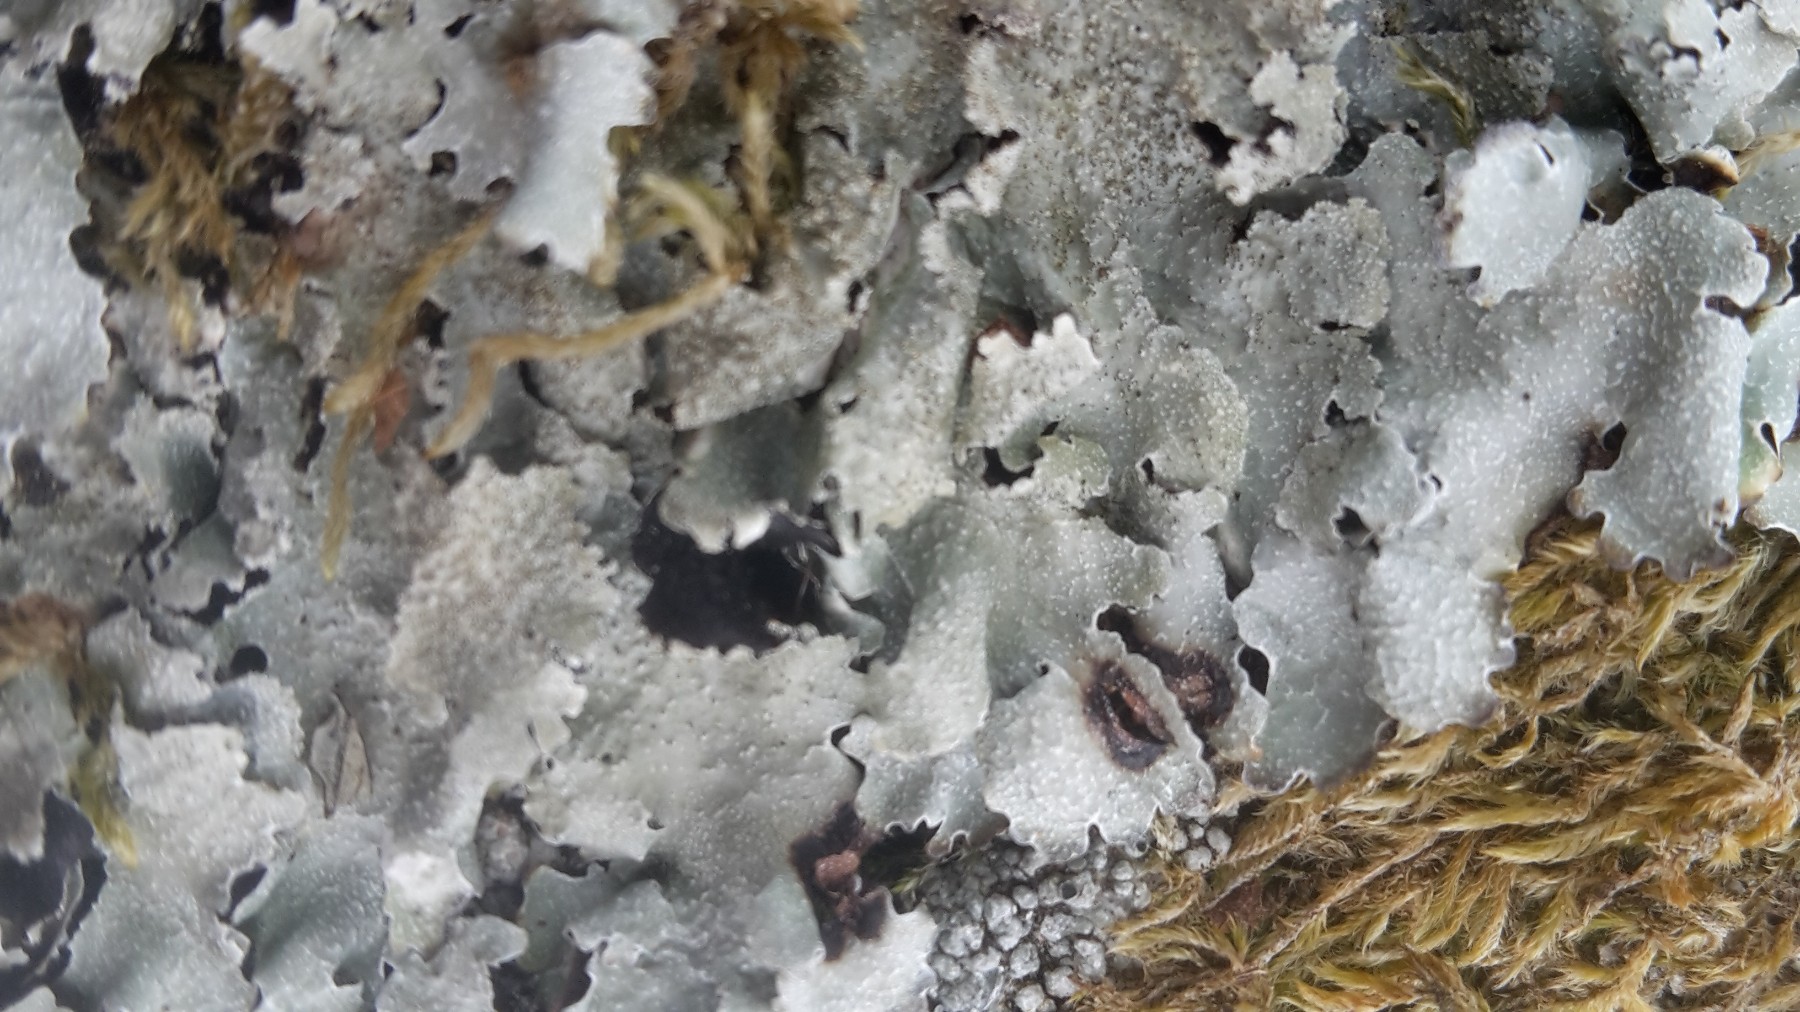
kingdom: Fungi
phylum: Ascomycota
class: Lecanoromycetes
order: Lecanorales
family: Parmeliaceae
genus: Parmelia
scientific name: Parmelia saxatilis
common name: farve-skållav
